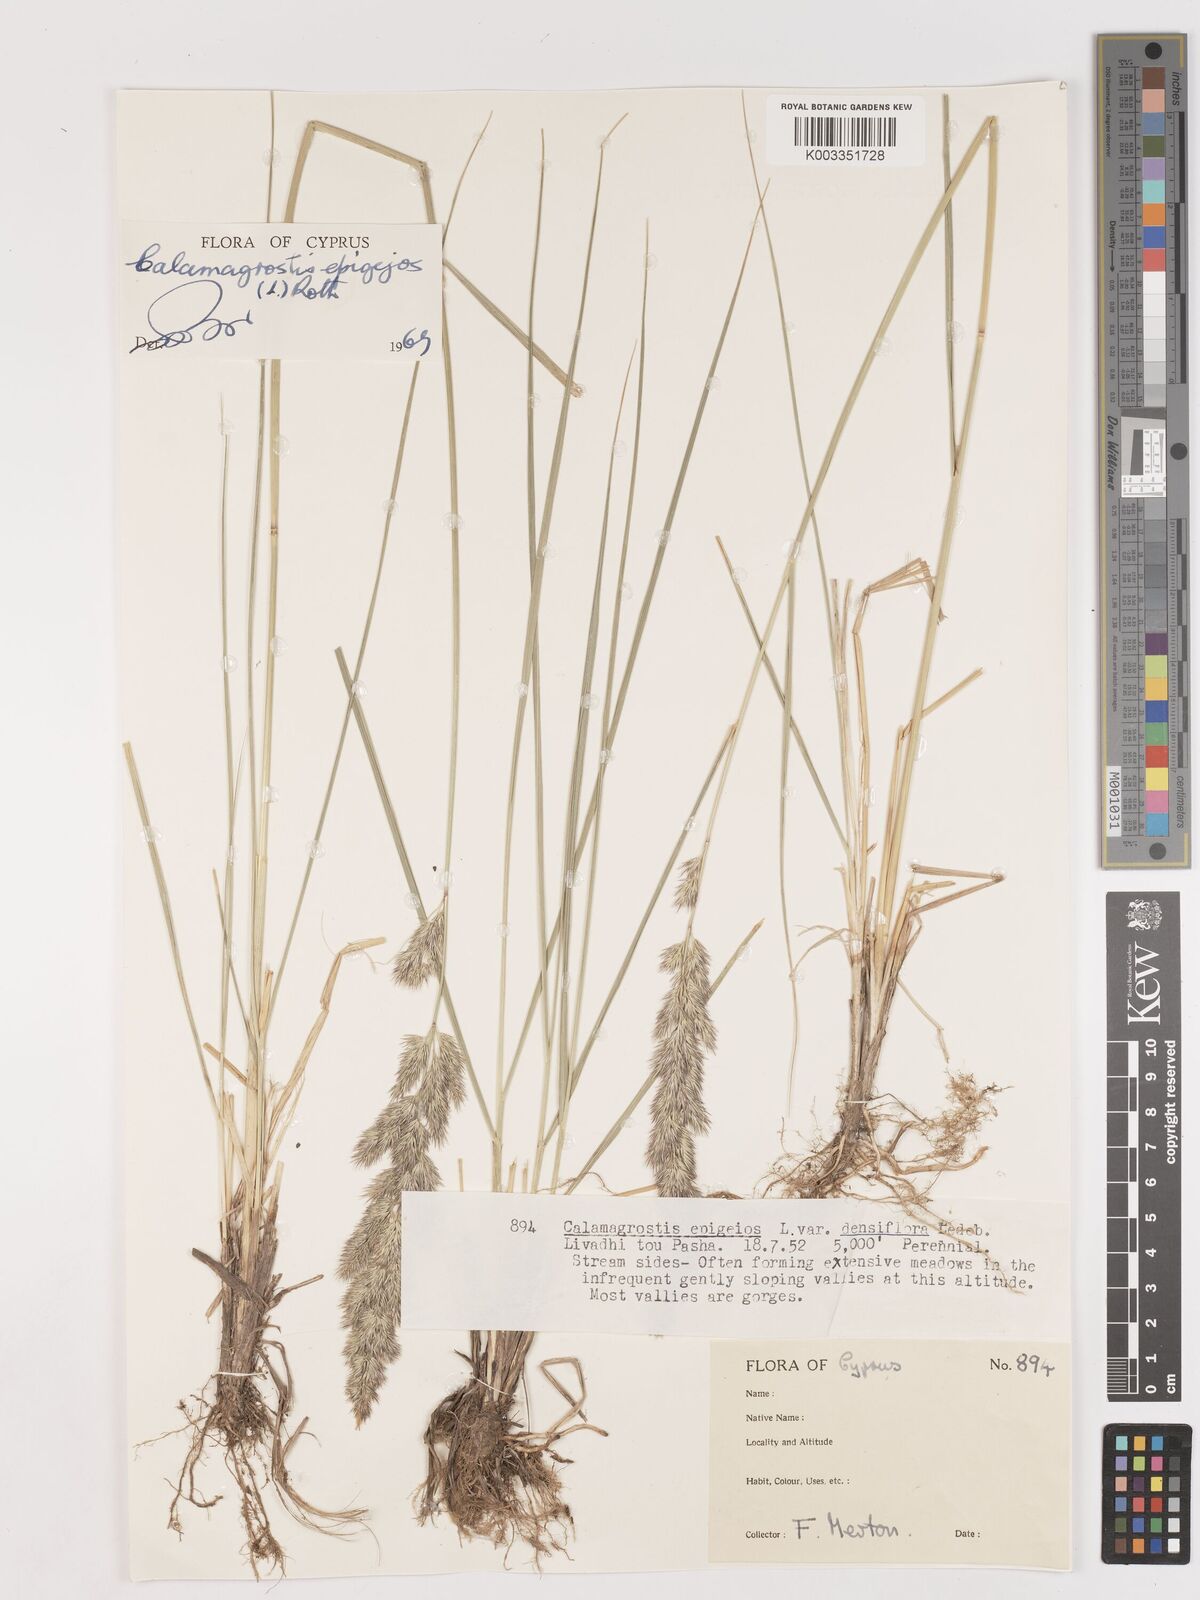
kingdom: Plantae
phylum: Tracheophyta
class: Liliopsida
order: Poales
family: Poaceae
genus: Calamagrostis
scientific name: Calamagrostis epigejos
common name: Wood small-reed
